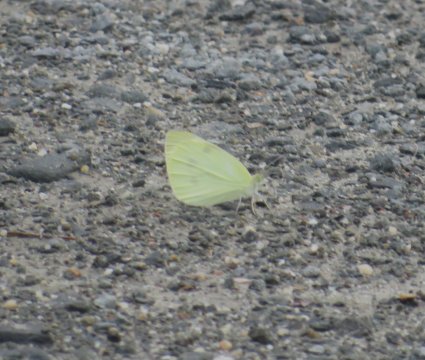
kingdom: Animalia
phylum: Arthropoda
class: Insecta
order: Lepidoptera
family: Pieridae
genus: Pieris
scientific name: Pieris rapae
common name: Cabbage White
